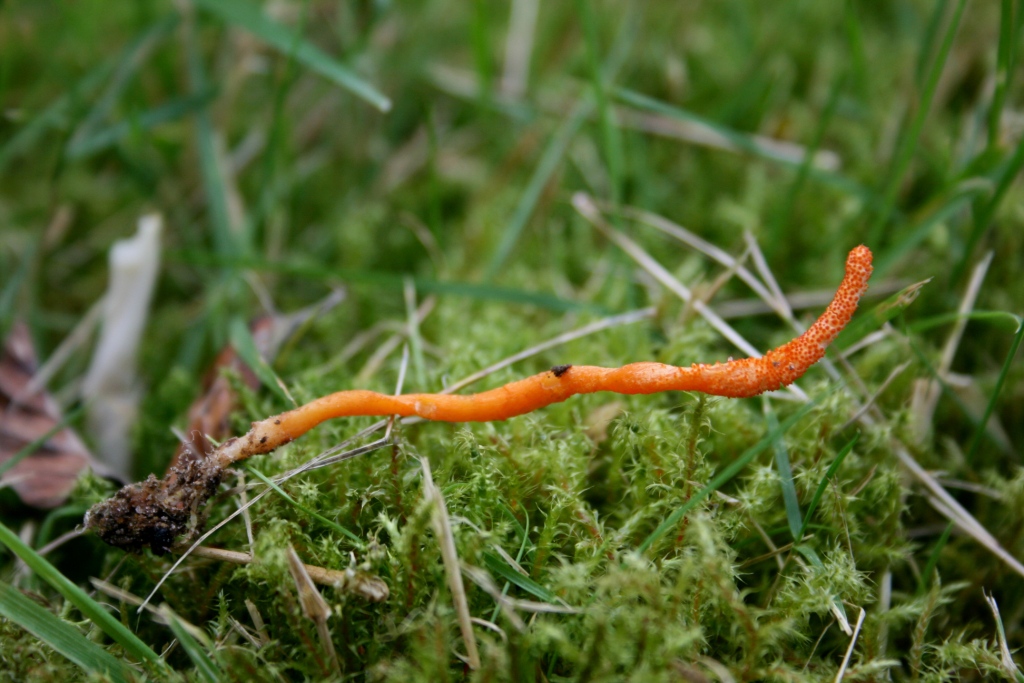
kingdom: Fungi
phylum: Ascomycota
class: Sordariomycetes
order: Hypocreales
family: Cordycipitaceae
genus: Cordyceps
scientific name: Cordyceps militaris
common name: puppe-snyltekølle
